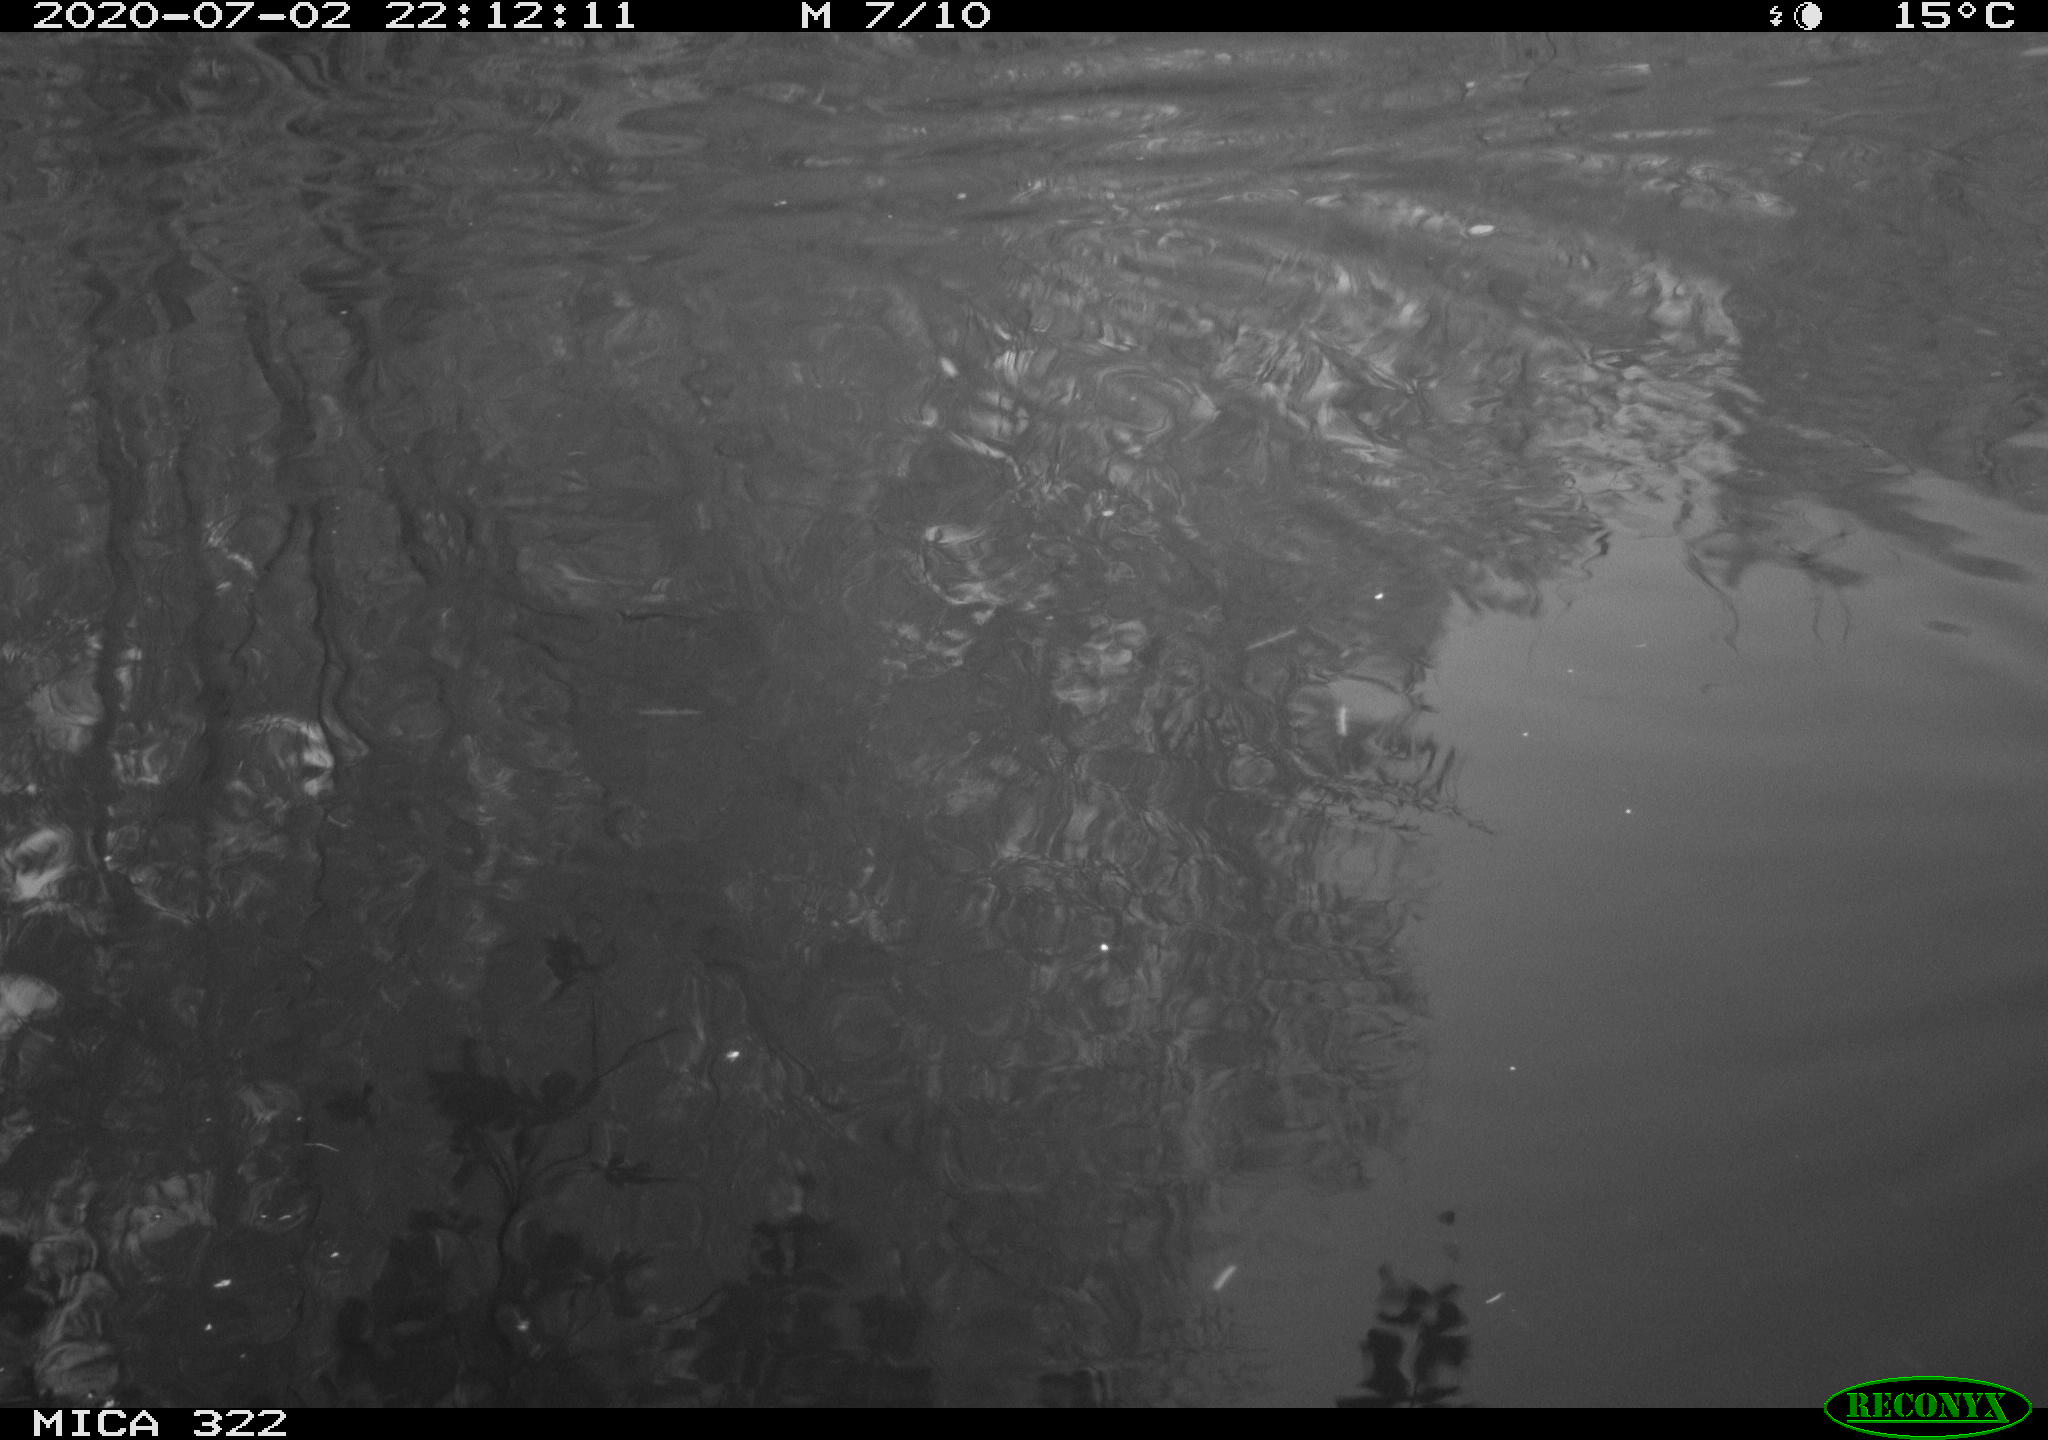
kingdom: Animalia
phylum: Chordata
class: Aves
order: Gruiformes
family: Rallidae
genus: Fulica
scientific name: Fulica atra
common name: Eurasian coot
